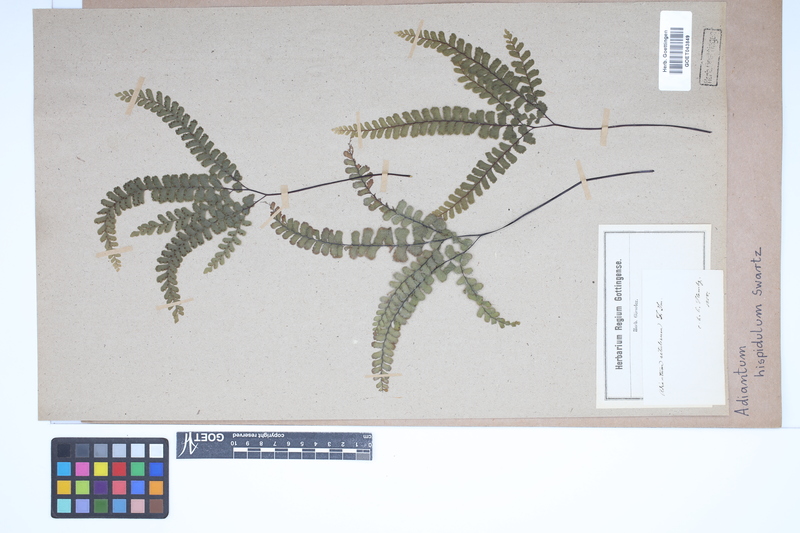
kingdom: Plantae
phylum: Tracheophyta
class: Polypodiopsida
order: Polypodiales
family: Pteridaceae
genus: Adiantum
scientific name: Adiantum hispidulum
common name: Rough maidenhair
